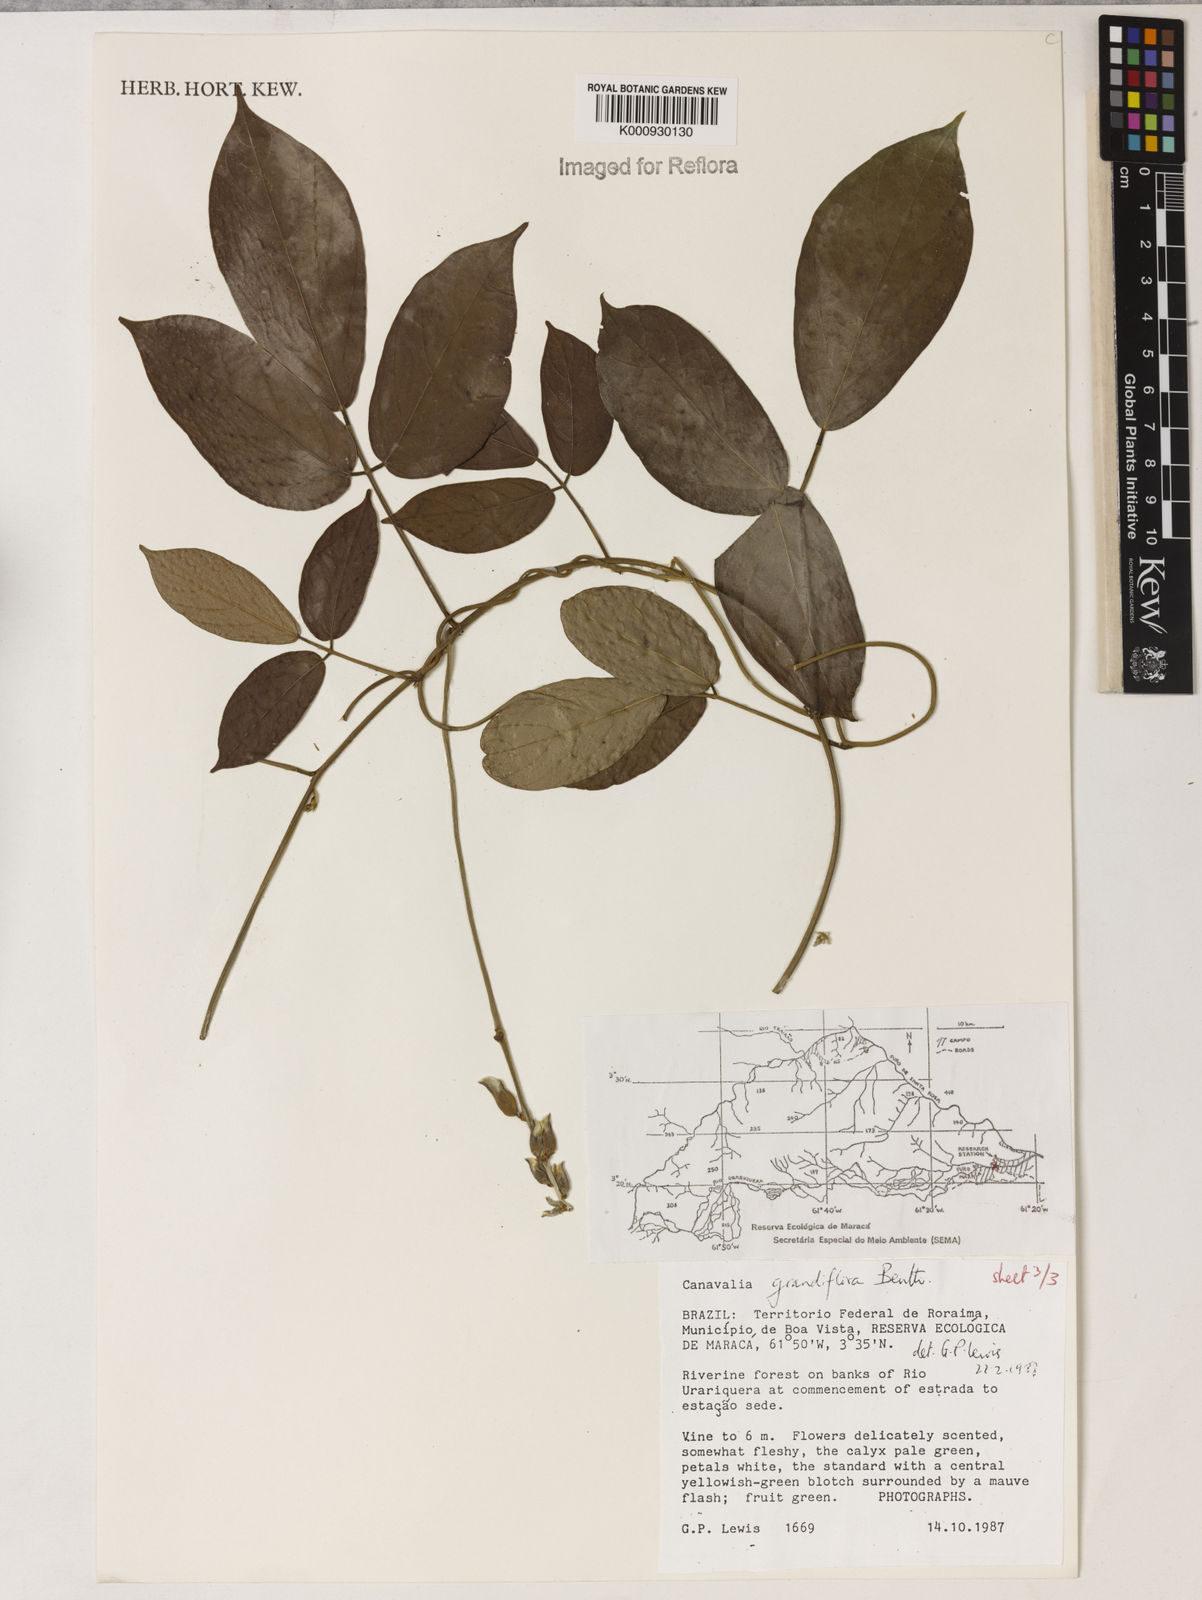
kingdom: Plantae
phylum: Tracheophyta
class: Magnoliopsida
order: Fabales
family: Fabaceae
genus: Canavalia
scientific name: Canavalia grandiflora
